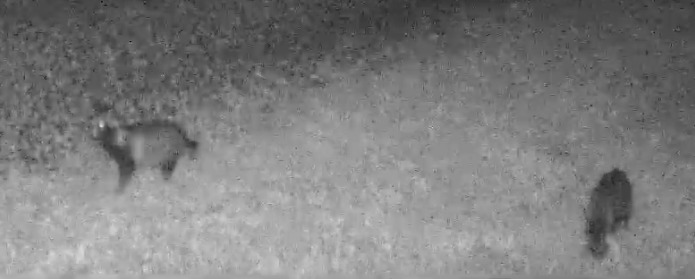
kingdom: Animalia
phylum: Chordata
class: Mammalia
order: Carnivora
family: Canidae
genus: Nyctereutes
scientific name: Nyctereutes procyonoides
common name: Mårhund
